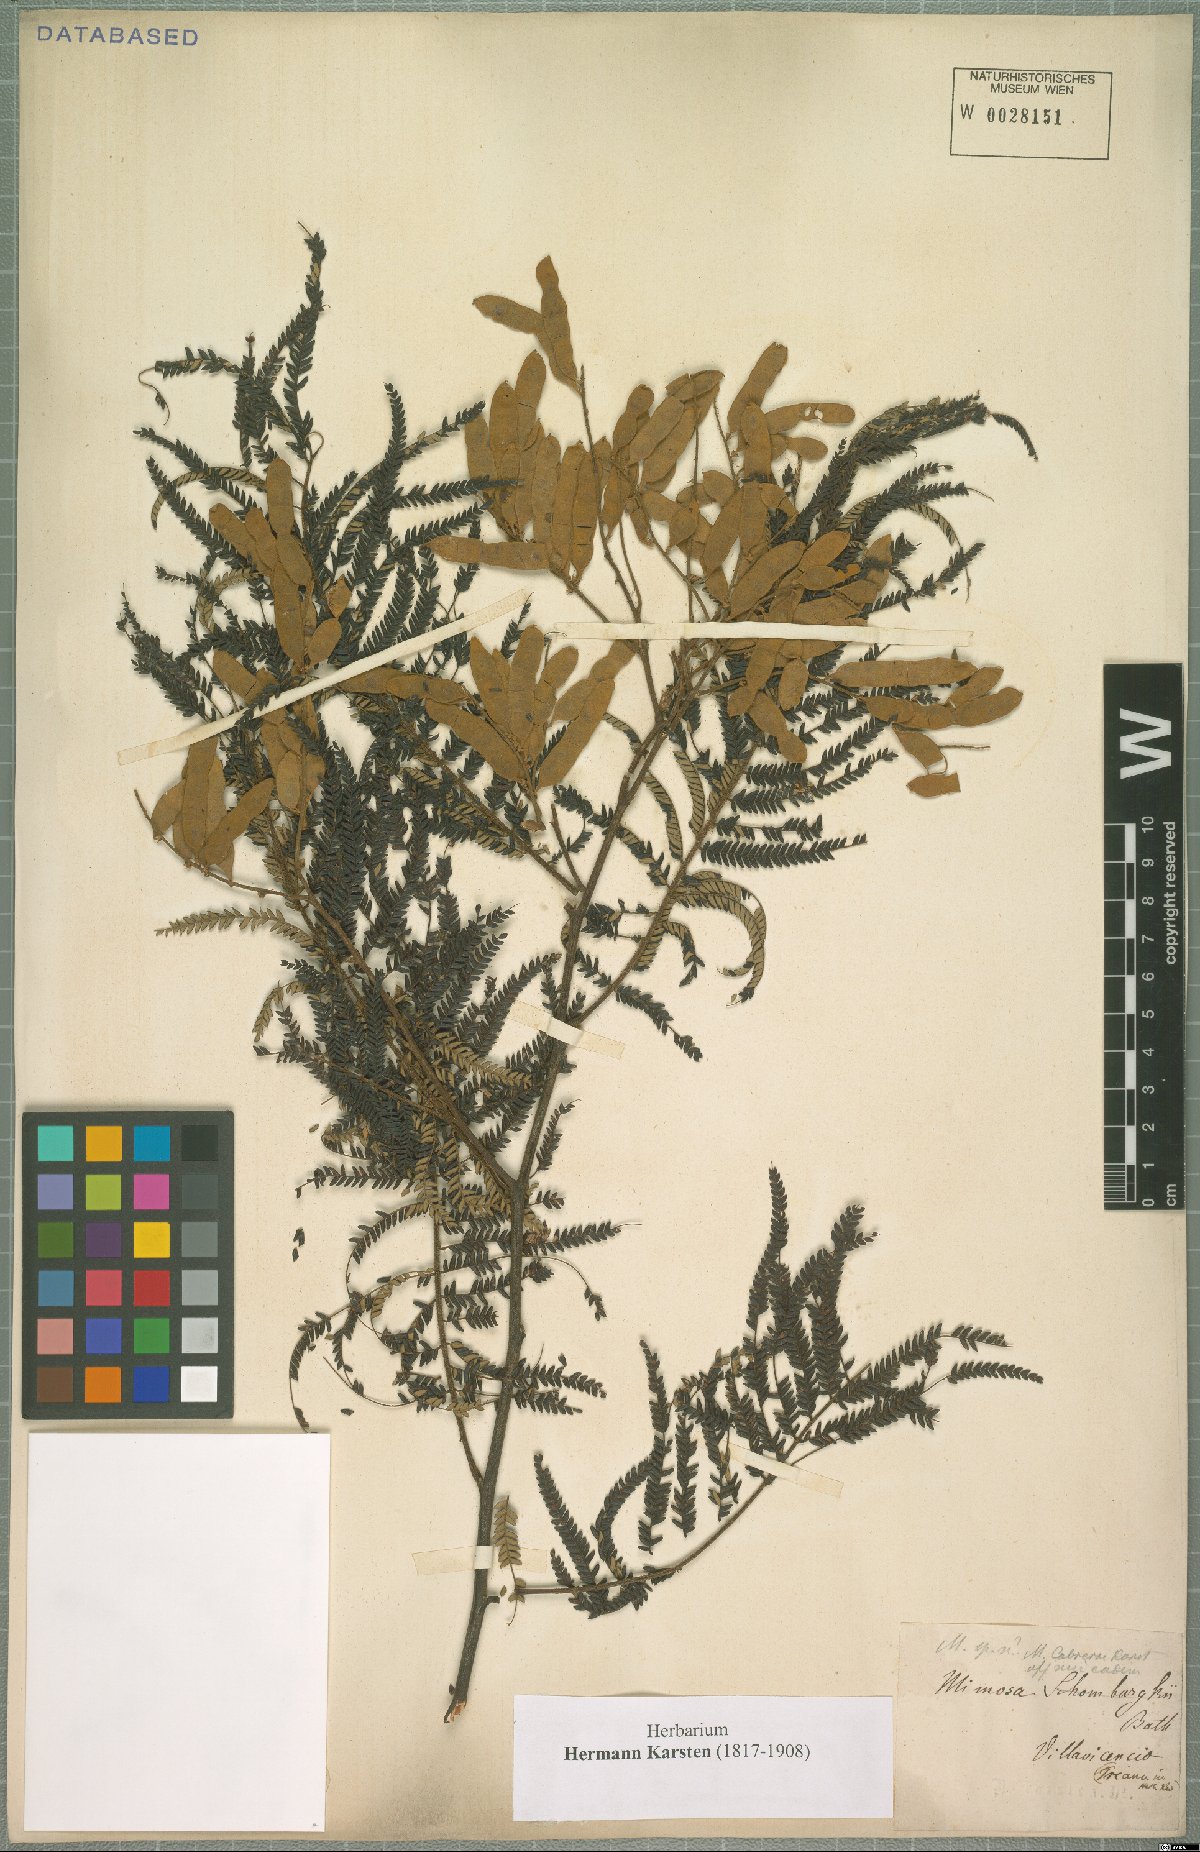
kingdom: Plantae
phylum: Tracheophyta
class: Magnoliopsida
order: Fabales
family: Fabaceae
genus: Mimosa
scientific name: Mimosa
